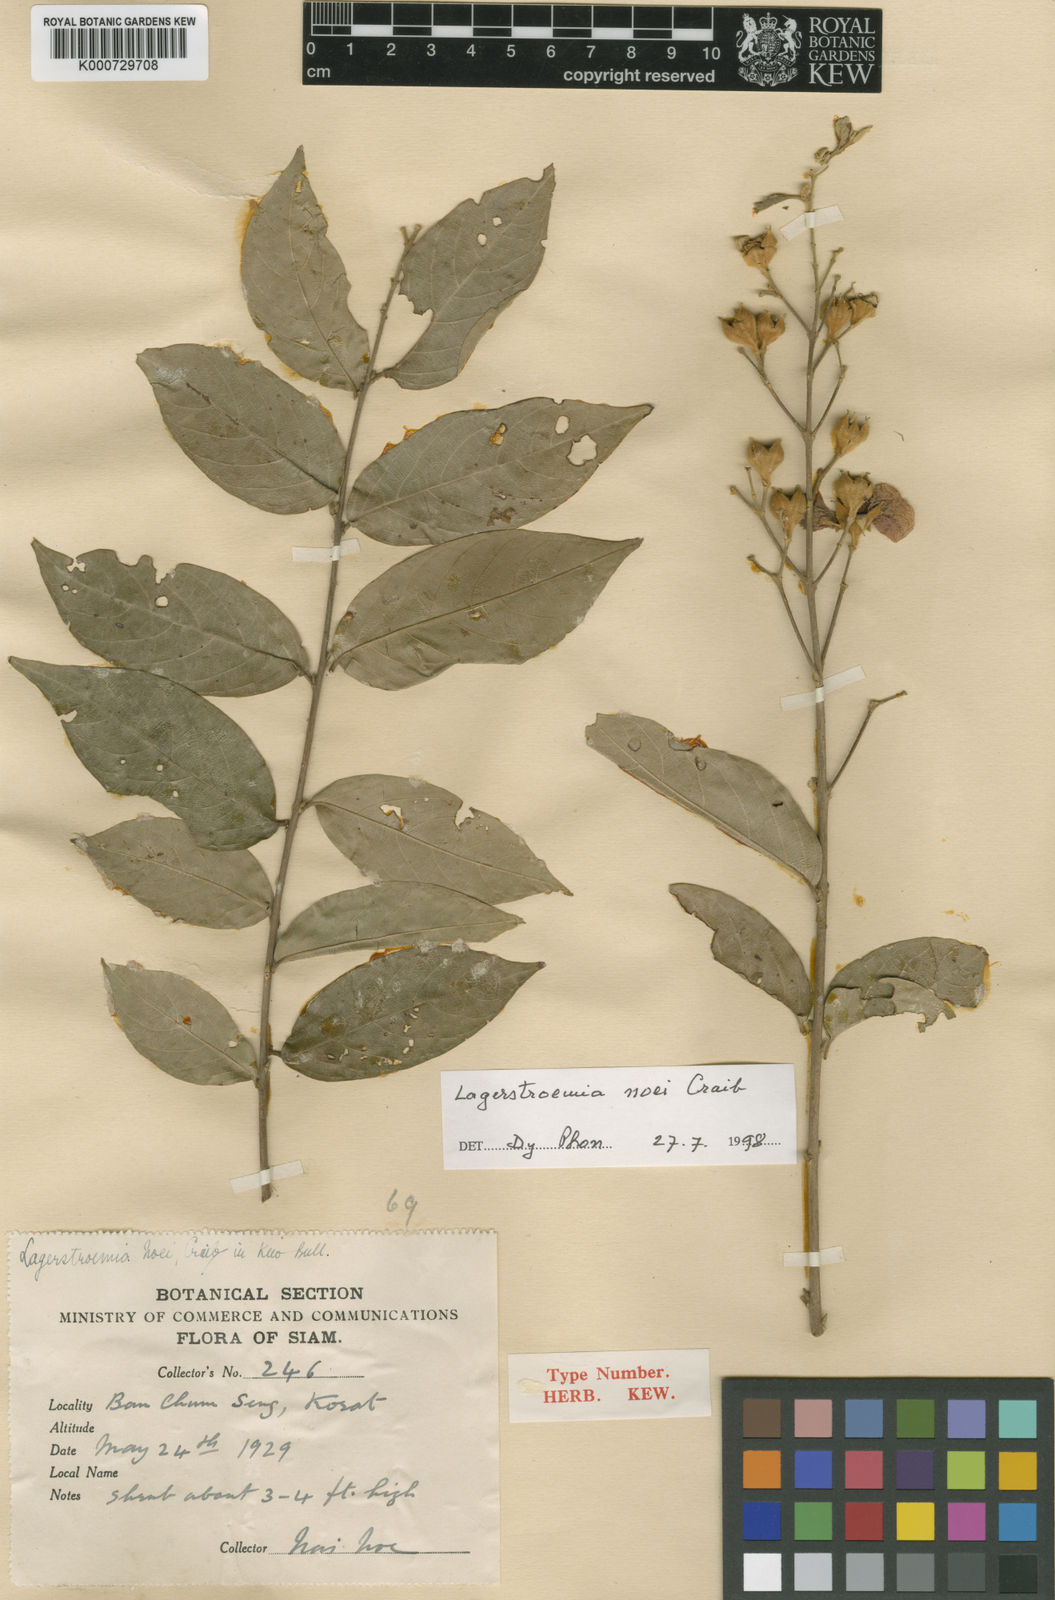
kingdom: Plantae
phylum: Tracheophyta
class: Magnoliopsida
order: Myrtales
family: Lythraceae
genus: Lagerstroemia
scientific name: Lagerstroemia noei
